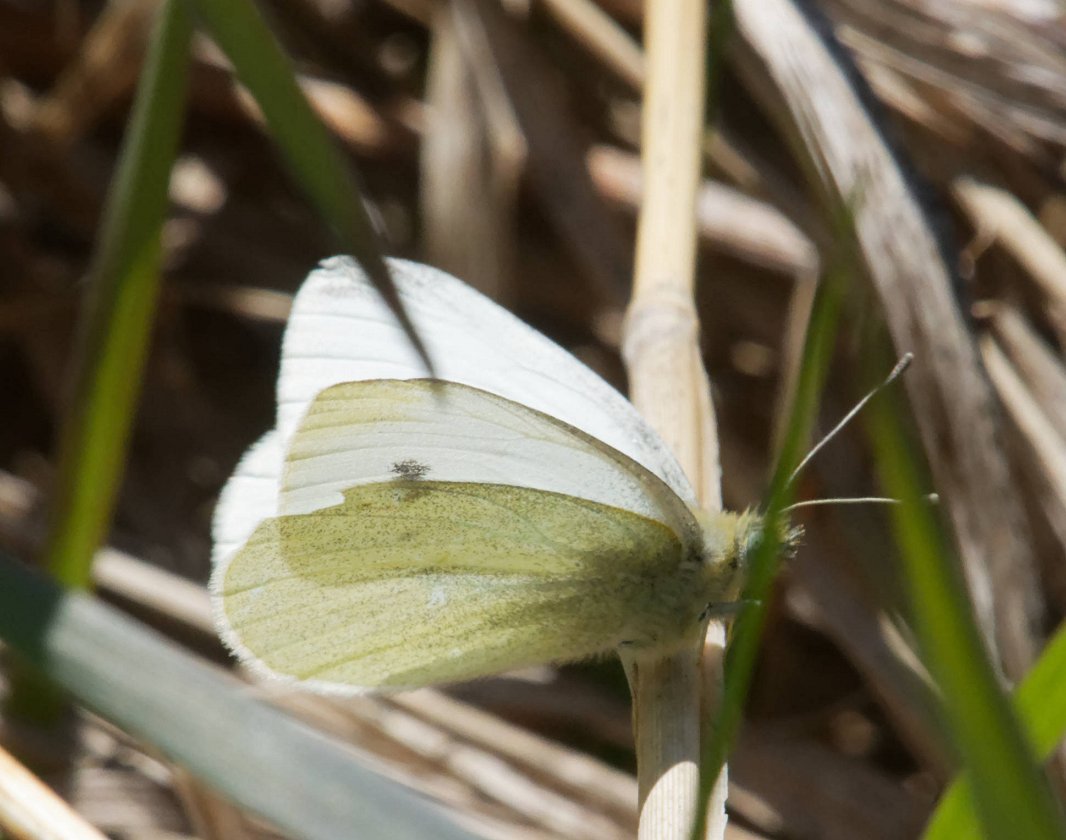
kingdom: Animalia
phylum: Arthropoda
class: Insecta
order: Lepidoptera
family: Pieridae
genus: Pieris
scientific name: Pieris rapae
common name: Cabbage White
